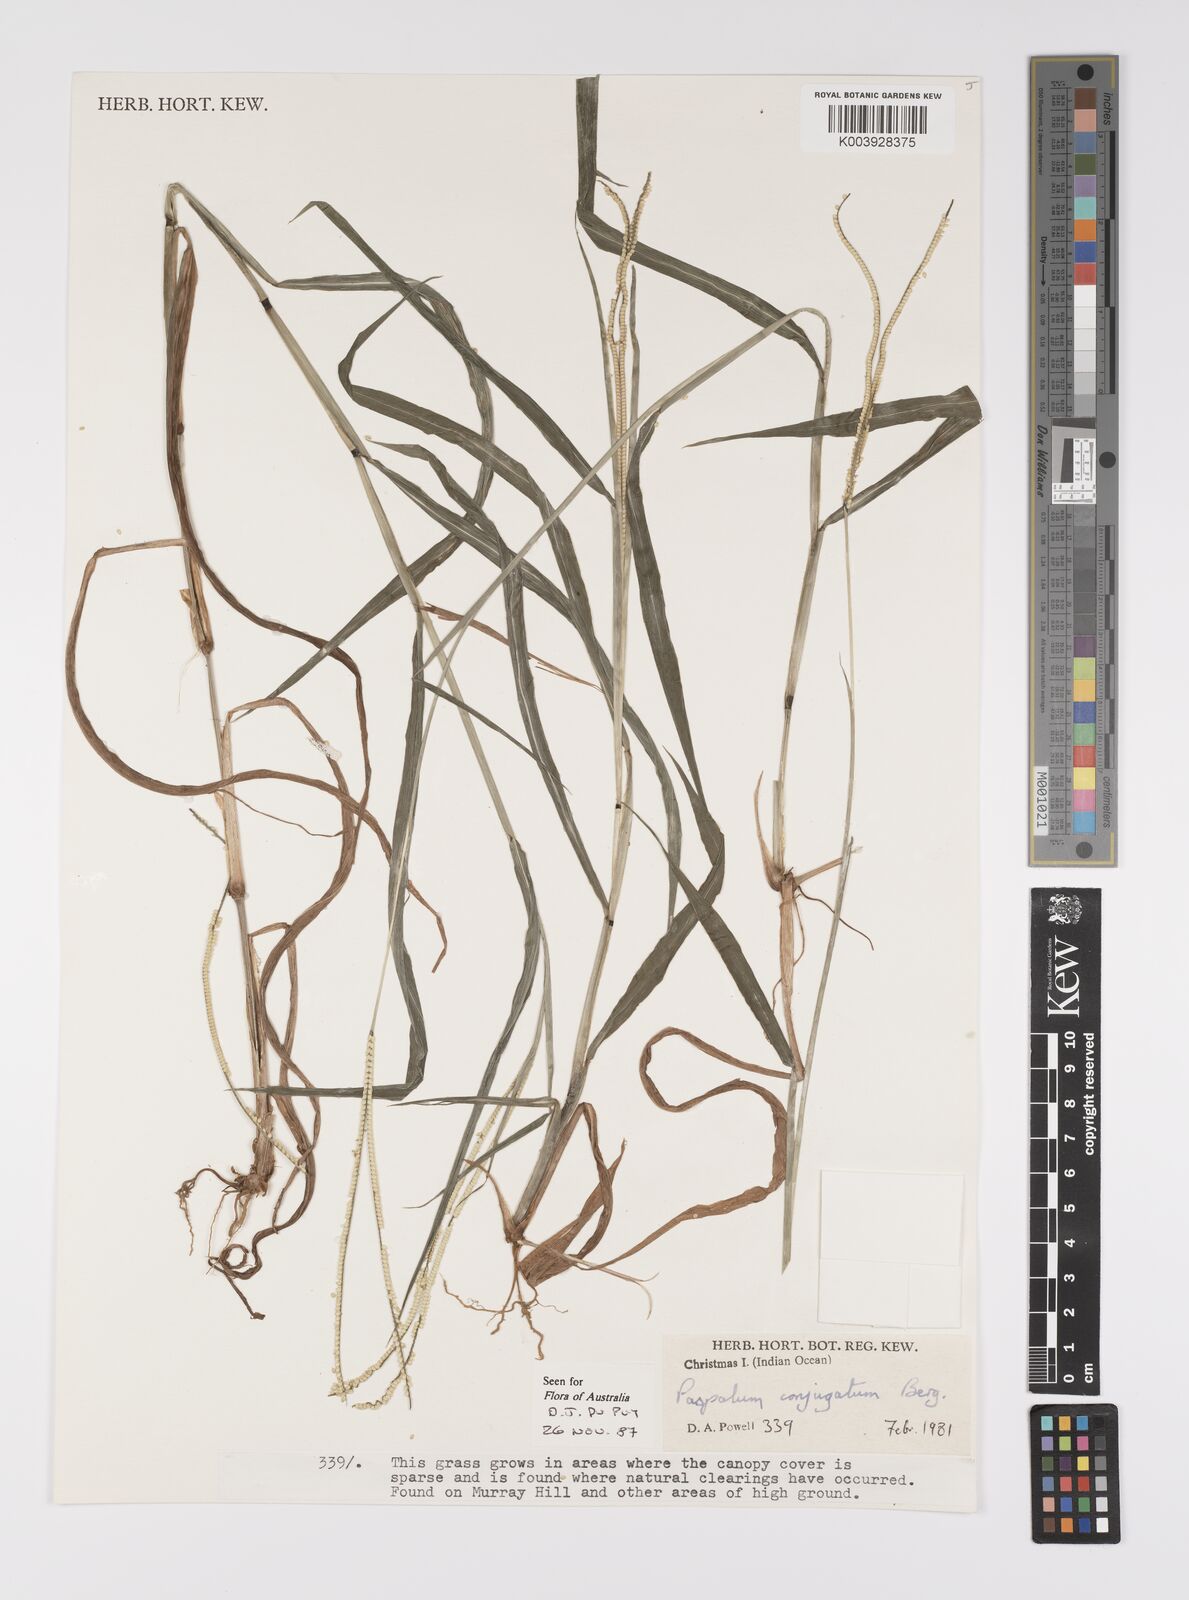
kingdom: Plantae
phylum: Tracheophyta
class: Liliopsida
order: Poales
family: Poaceae
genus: Paspalum
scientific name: Paspalum conjugatum
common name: Hilograss
